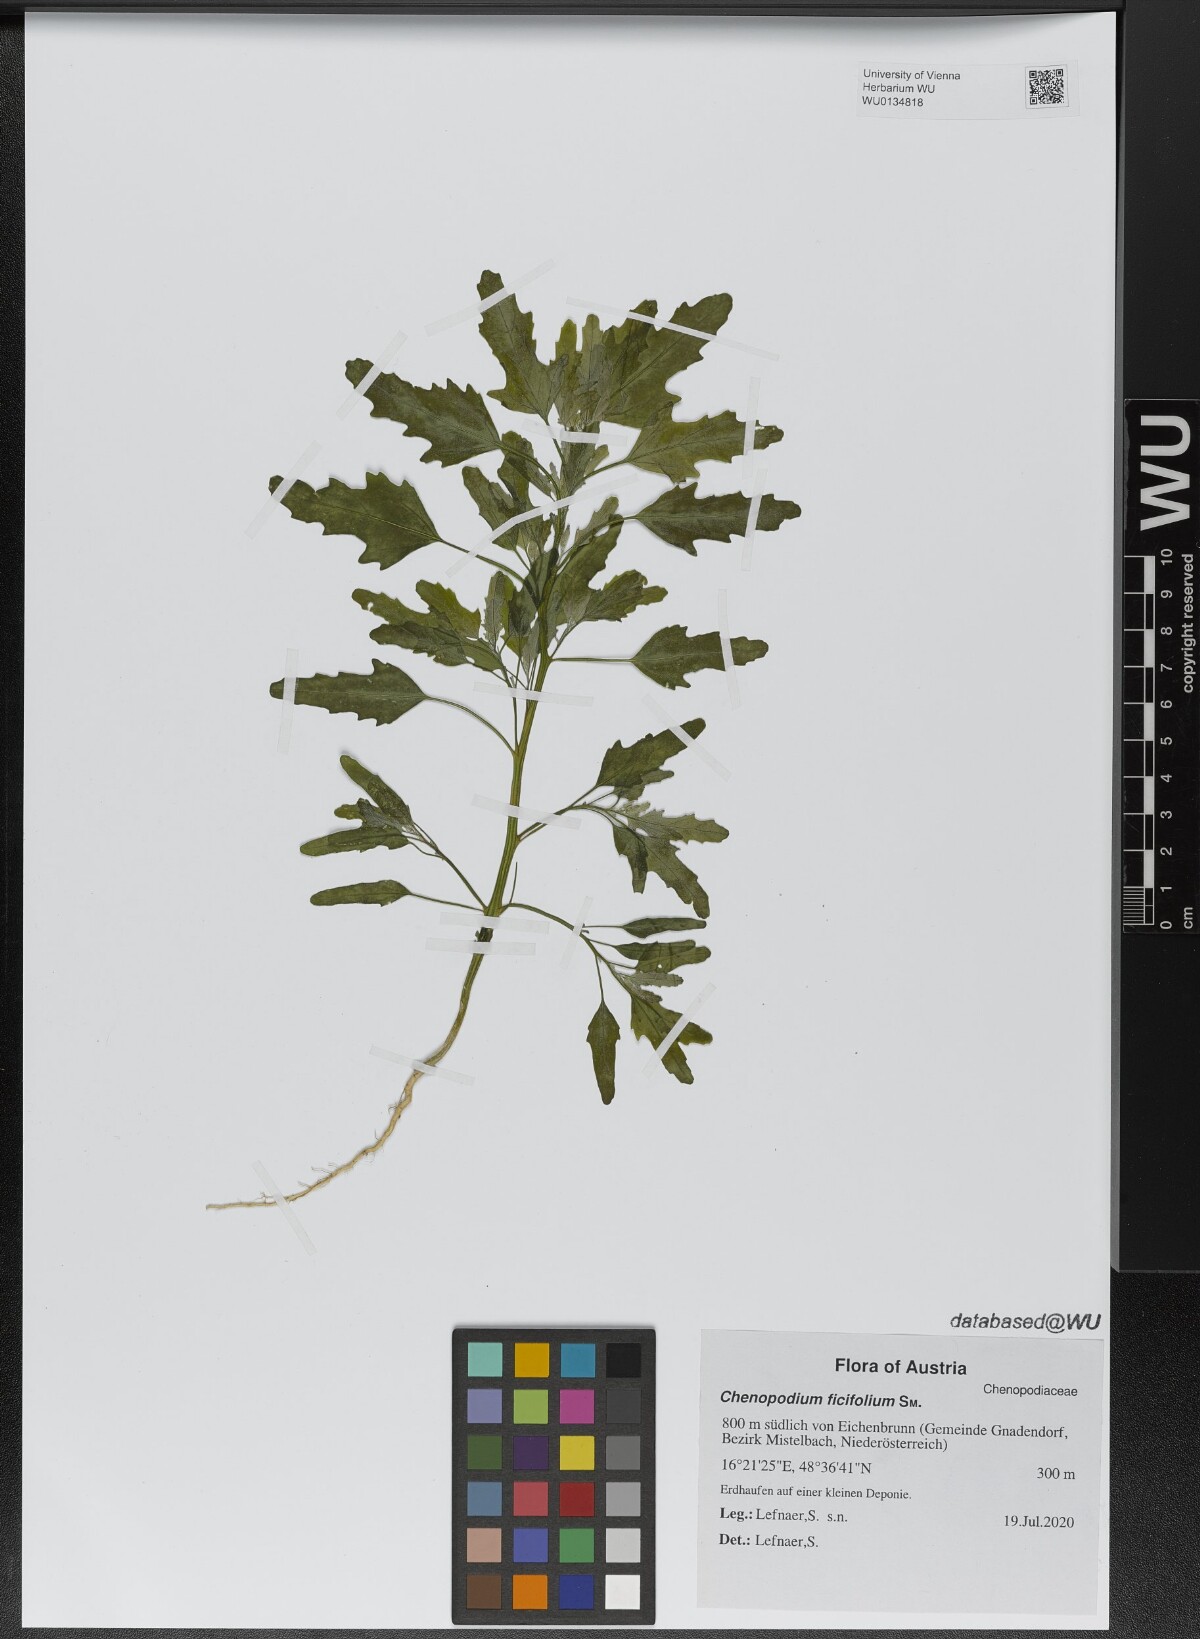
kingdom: Plantae
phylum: Tracheophyta
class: Magnoliopsida
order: Caryophyllales
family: Amaranthaceae
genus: Chenopodium
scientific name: Chenopodium ficifolium
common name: Fig-leaved goosefoot
